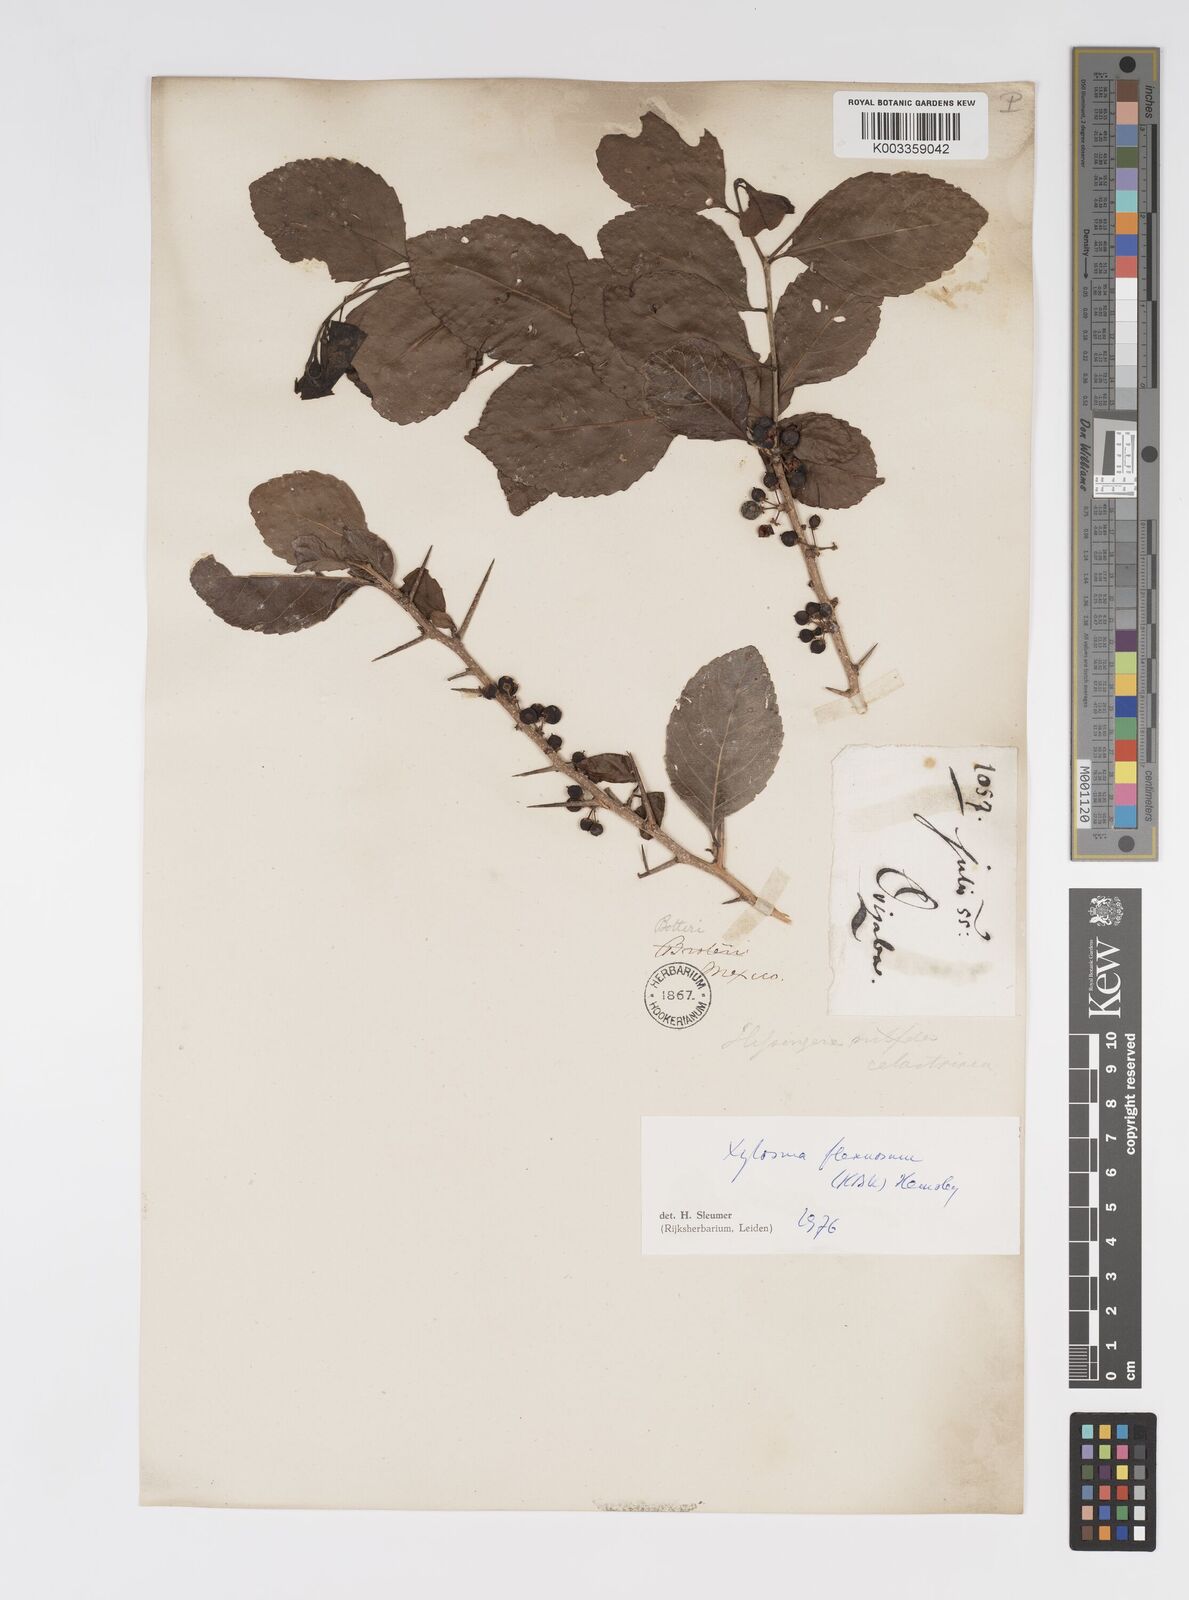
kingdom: Plantae
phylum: Tracheophyta
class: Magnoliopsida
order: Malpighiales
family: Salicaceae
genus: Xylosma
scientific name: Xylosma flexuosa
